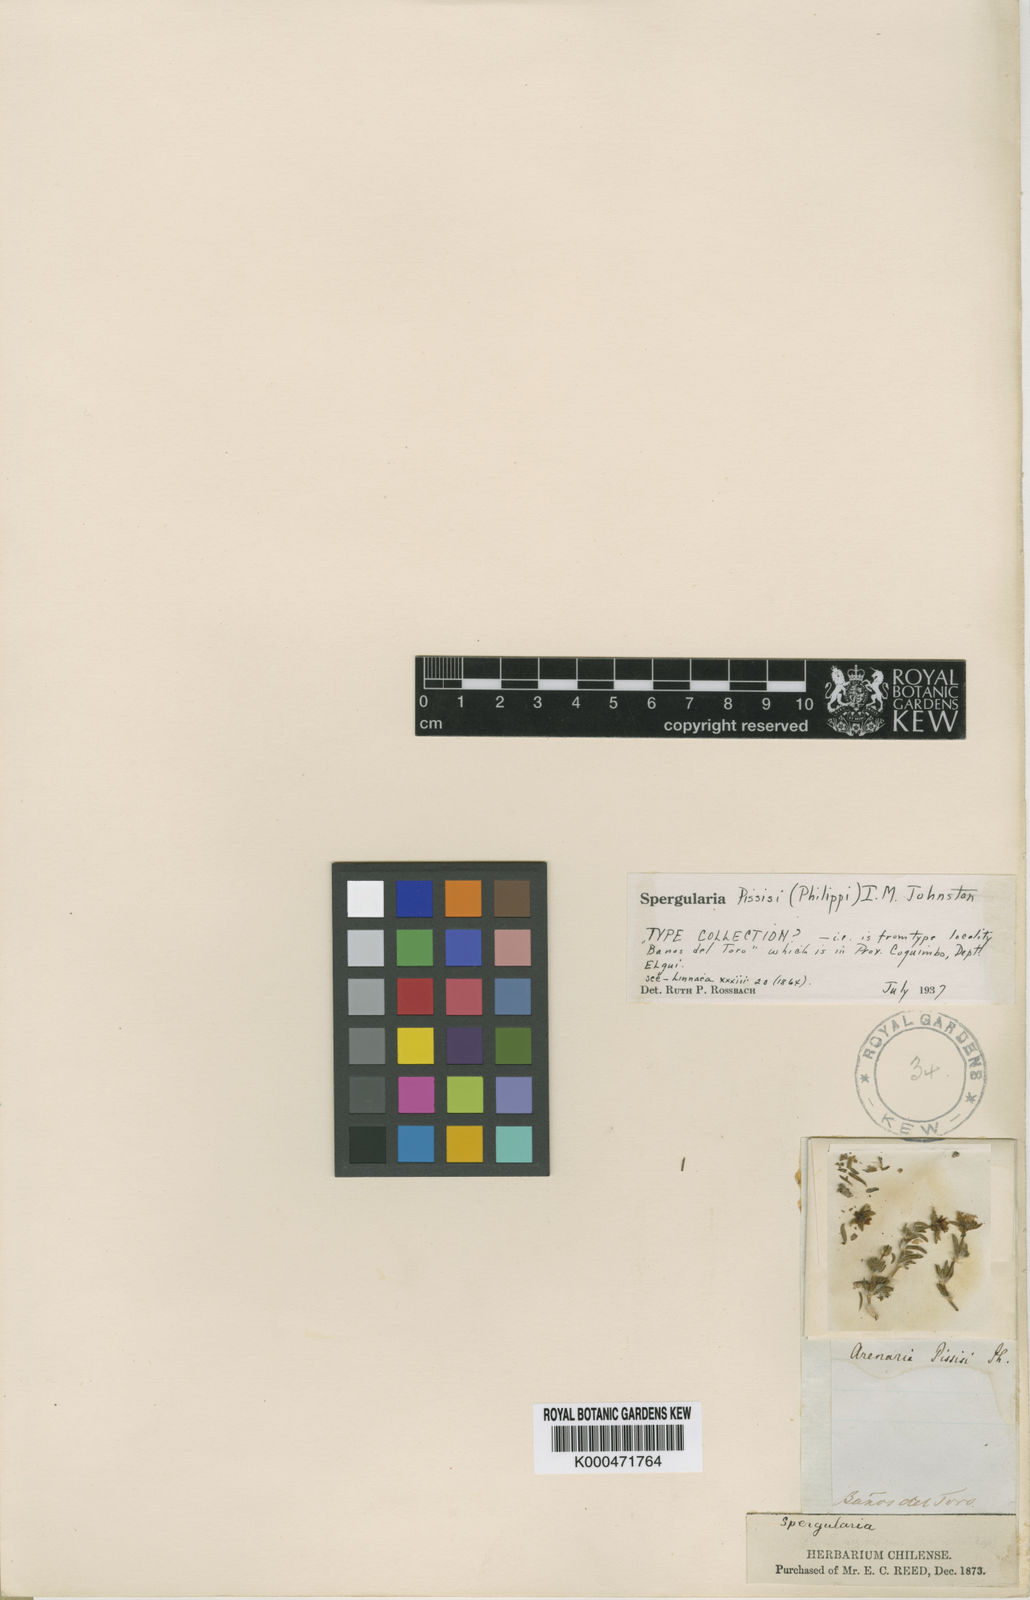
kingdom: Plantae
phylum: Tracheophyta
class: Magnoliopsida
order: Caryophyllales
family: Caryophyllaceae
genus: Spergularia
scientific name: Spergularia pissisi
